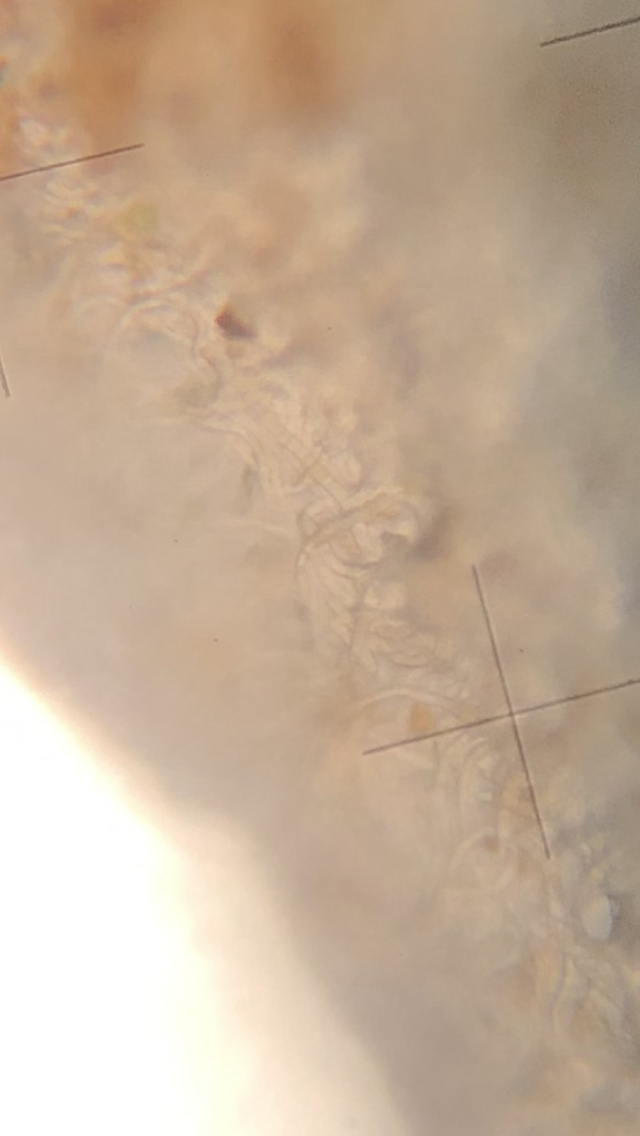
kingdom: Fungi
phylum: Ascomycota
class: Pezizomycetes
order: Pezizales
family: Sarcoscyphaceae
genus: Sarcoscypha
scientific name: Sarcoscypha austriaca
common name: krølhåret pragtbæger
